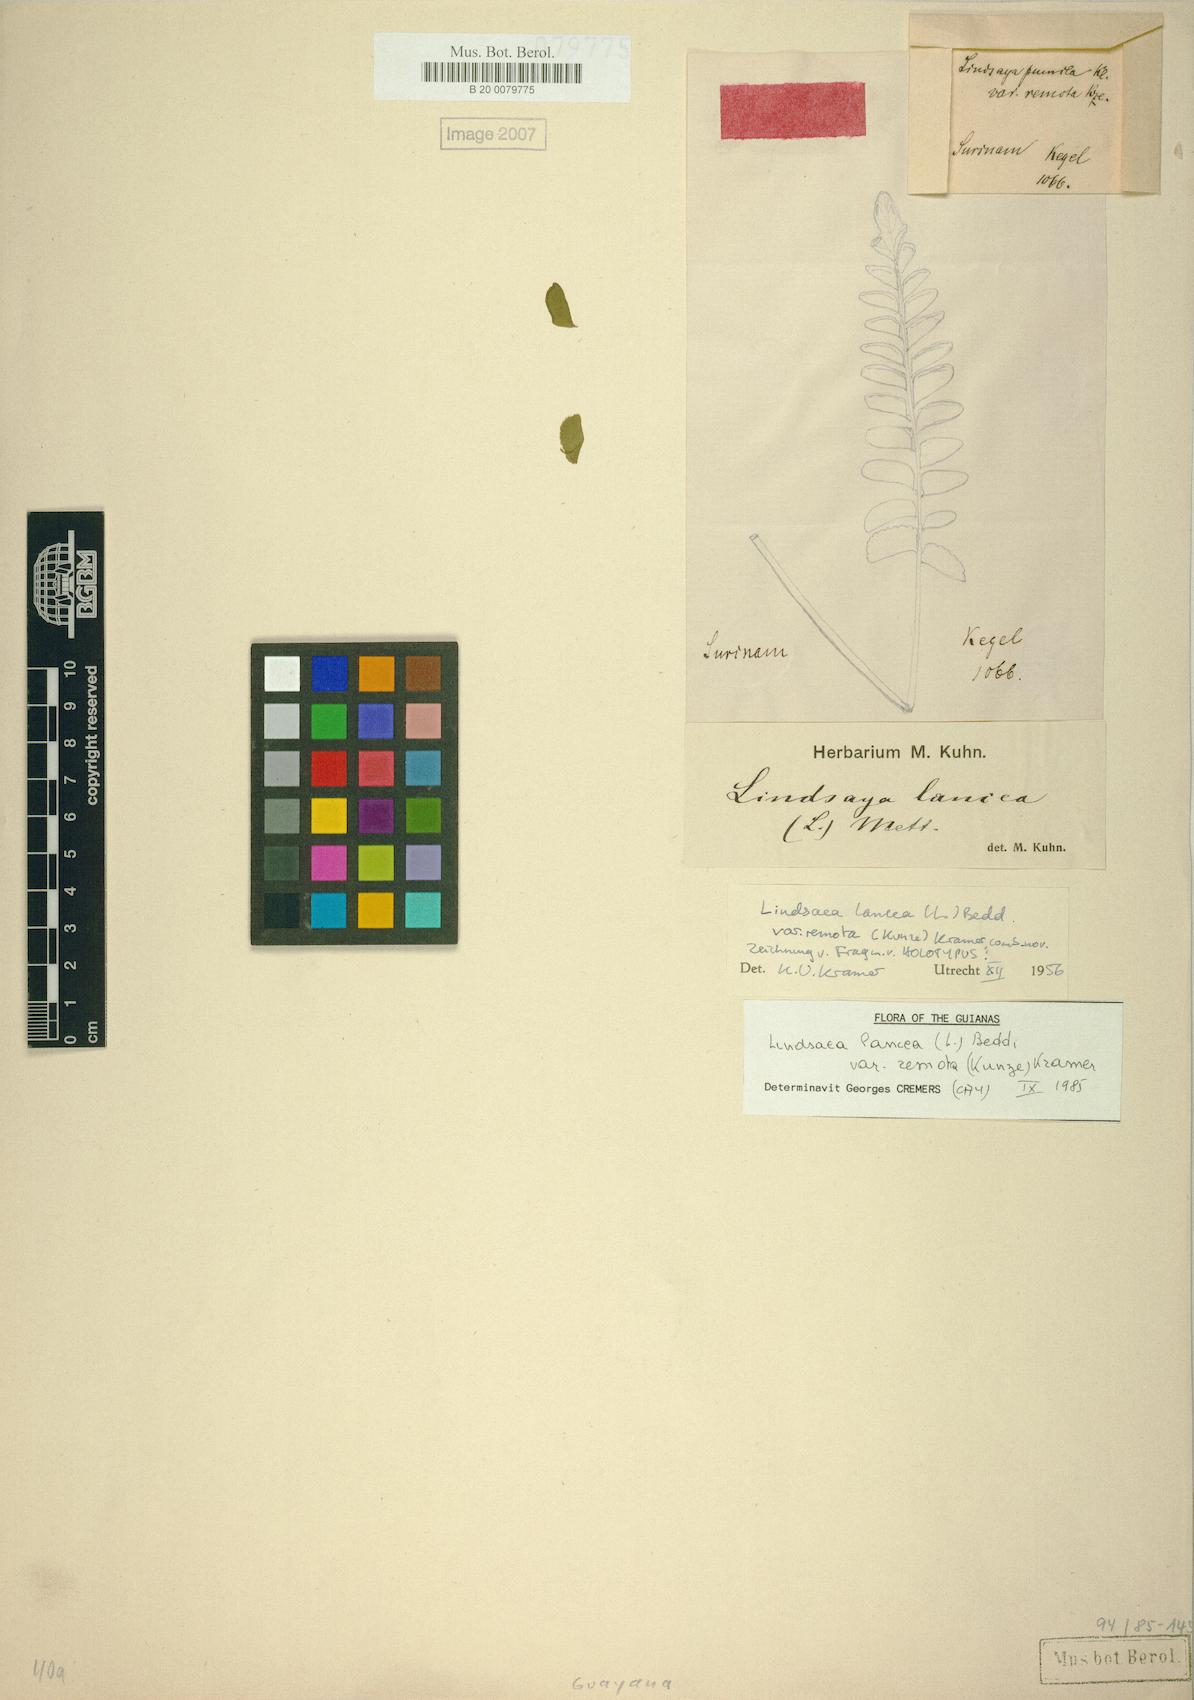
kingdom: Plantae
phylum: Tracheophyta
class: Polypodiopsida
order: Polypodiales
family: Lindsaeaceae
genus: Lindsaea
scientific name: Lindsaea lancea
